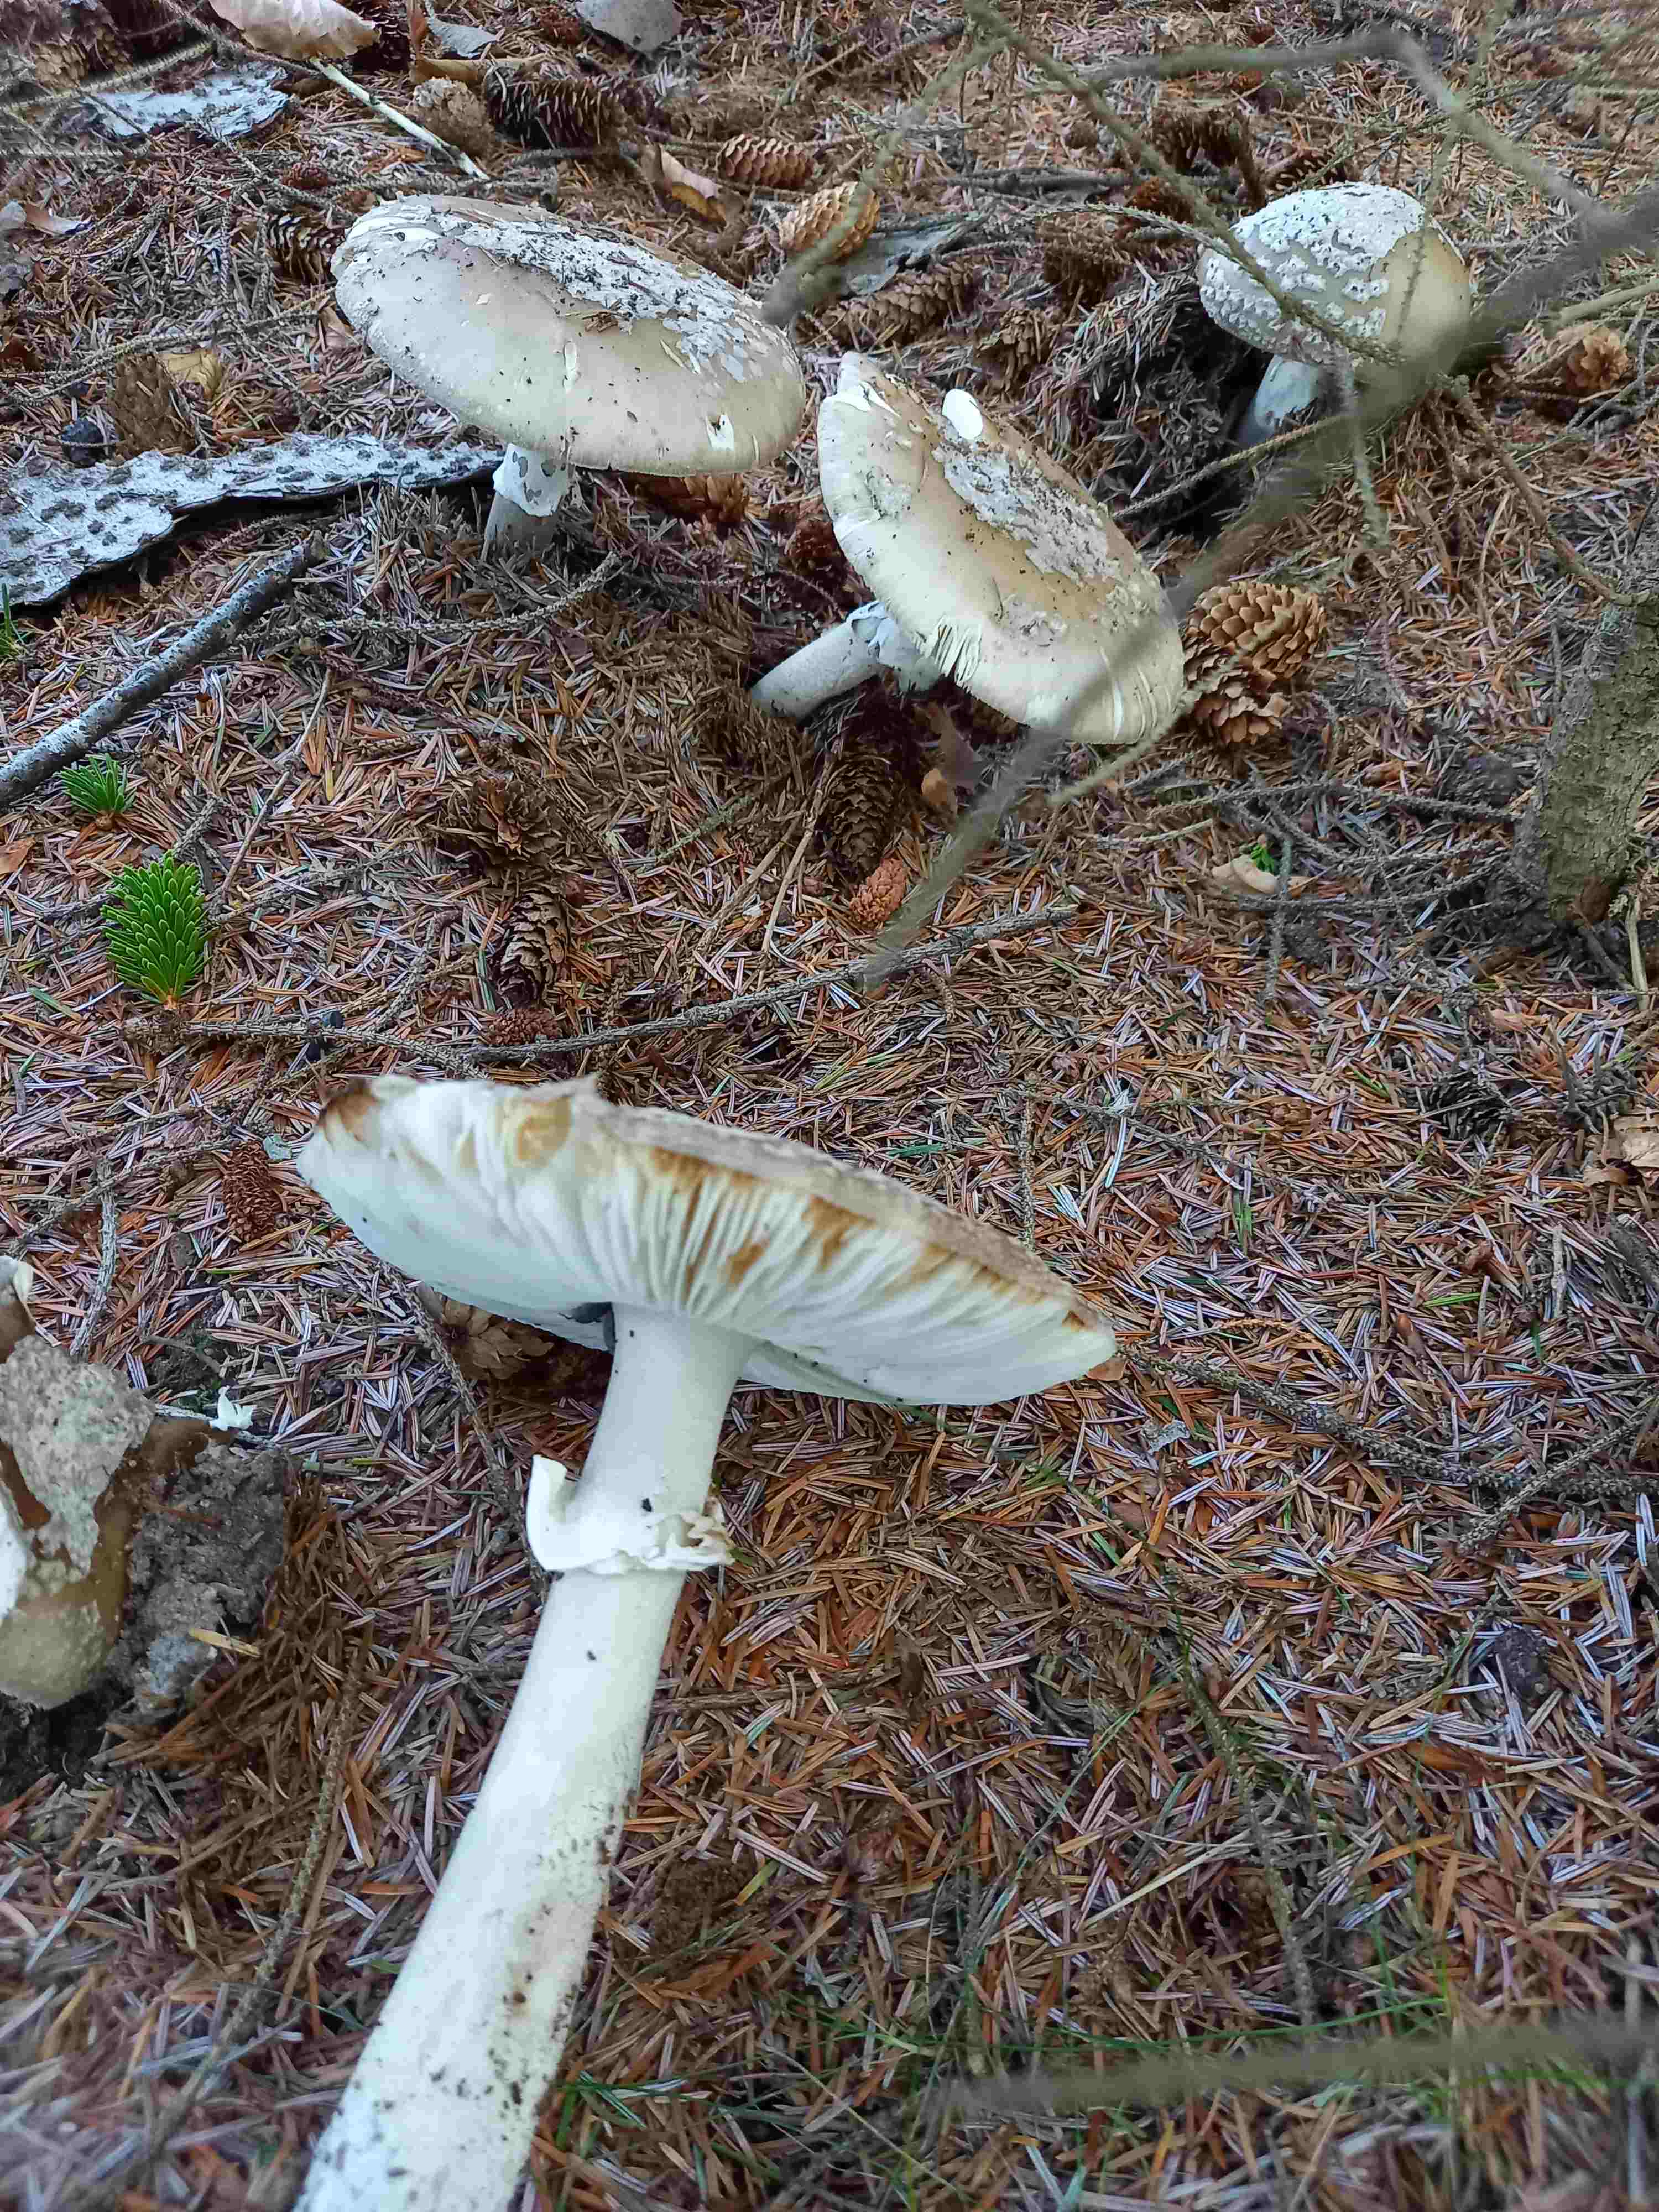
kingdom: Fungi
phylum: Basidiomycota
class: Agaricomycetes
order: Agaricales
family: Amanitaceae
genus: Amanita
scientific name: Amanita
